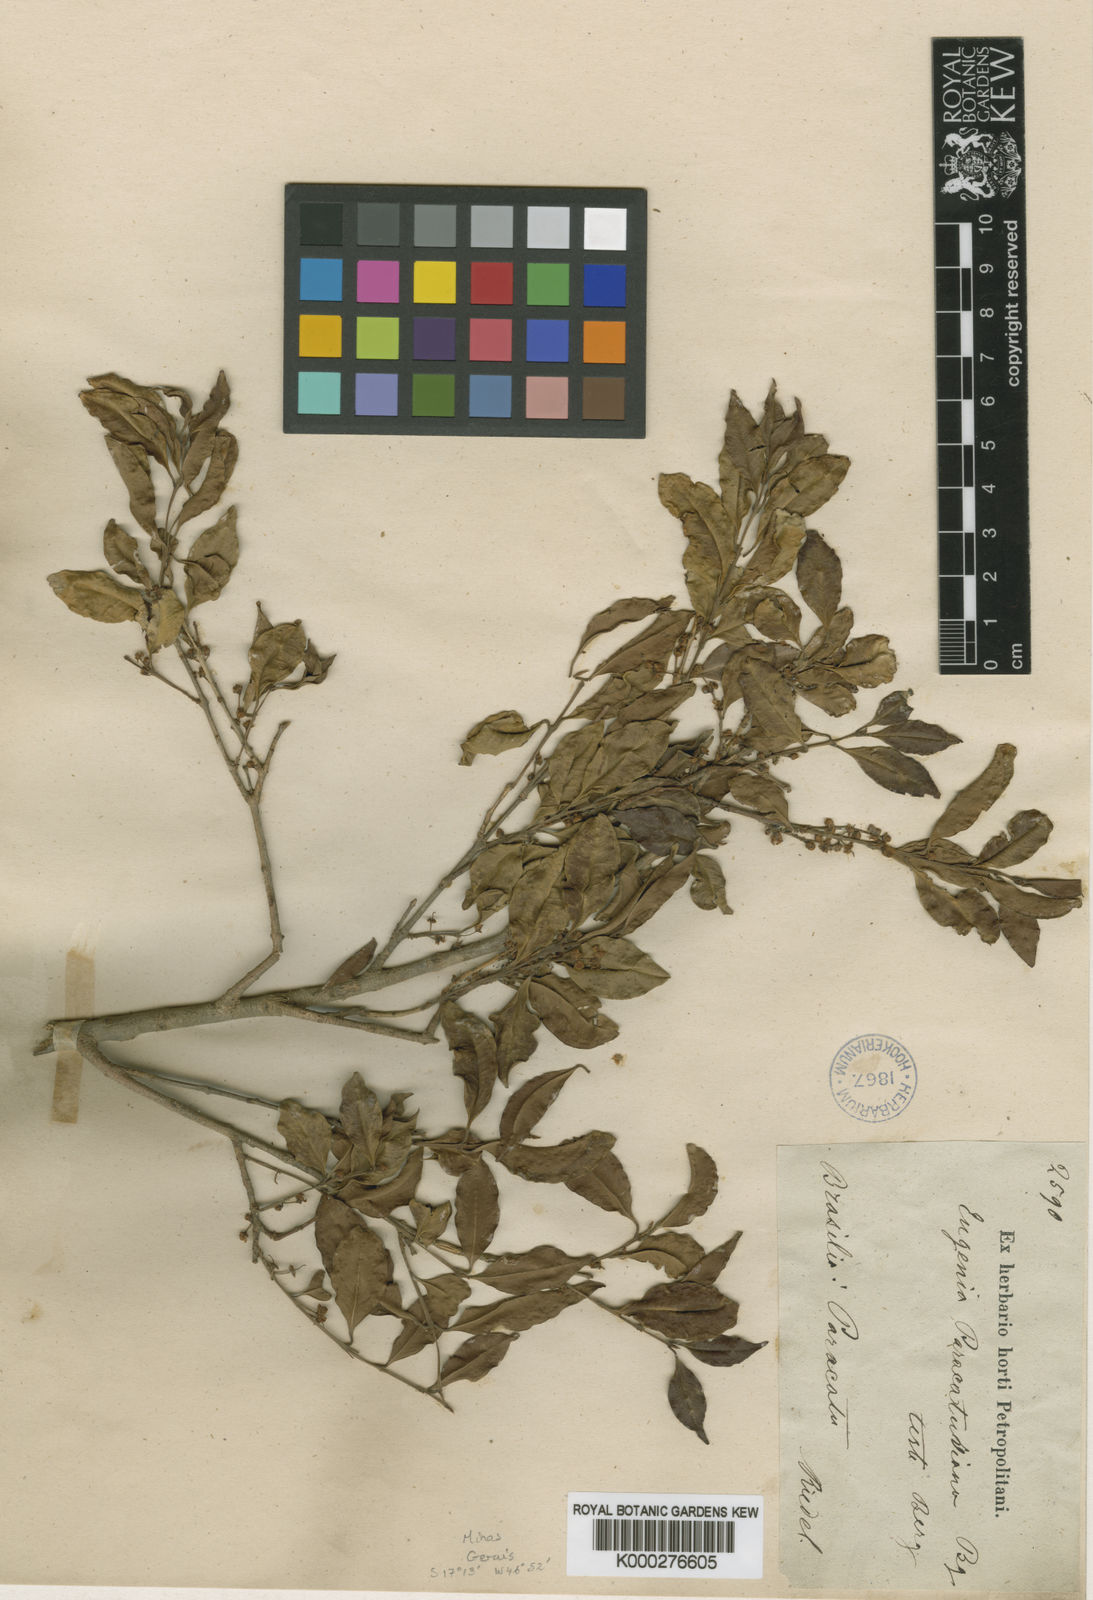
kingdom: Plantae
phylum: Tracheophyta
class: Magnoliopsida
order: Myrtales
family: Myrtaceae
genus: Eugenia
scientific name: Eugenia modesta
